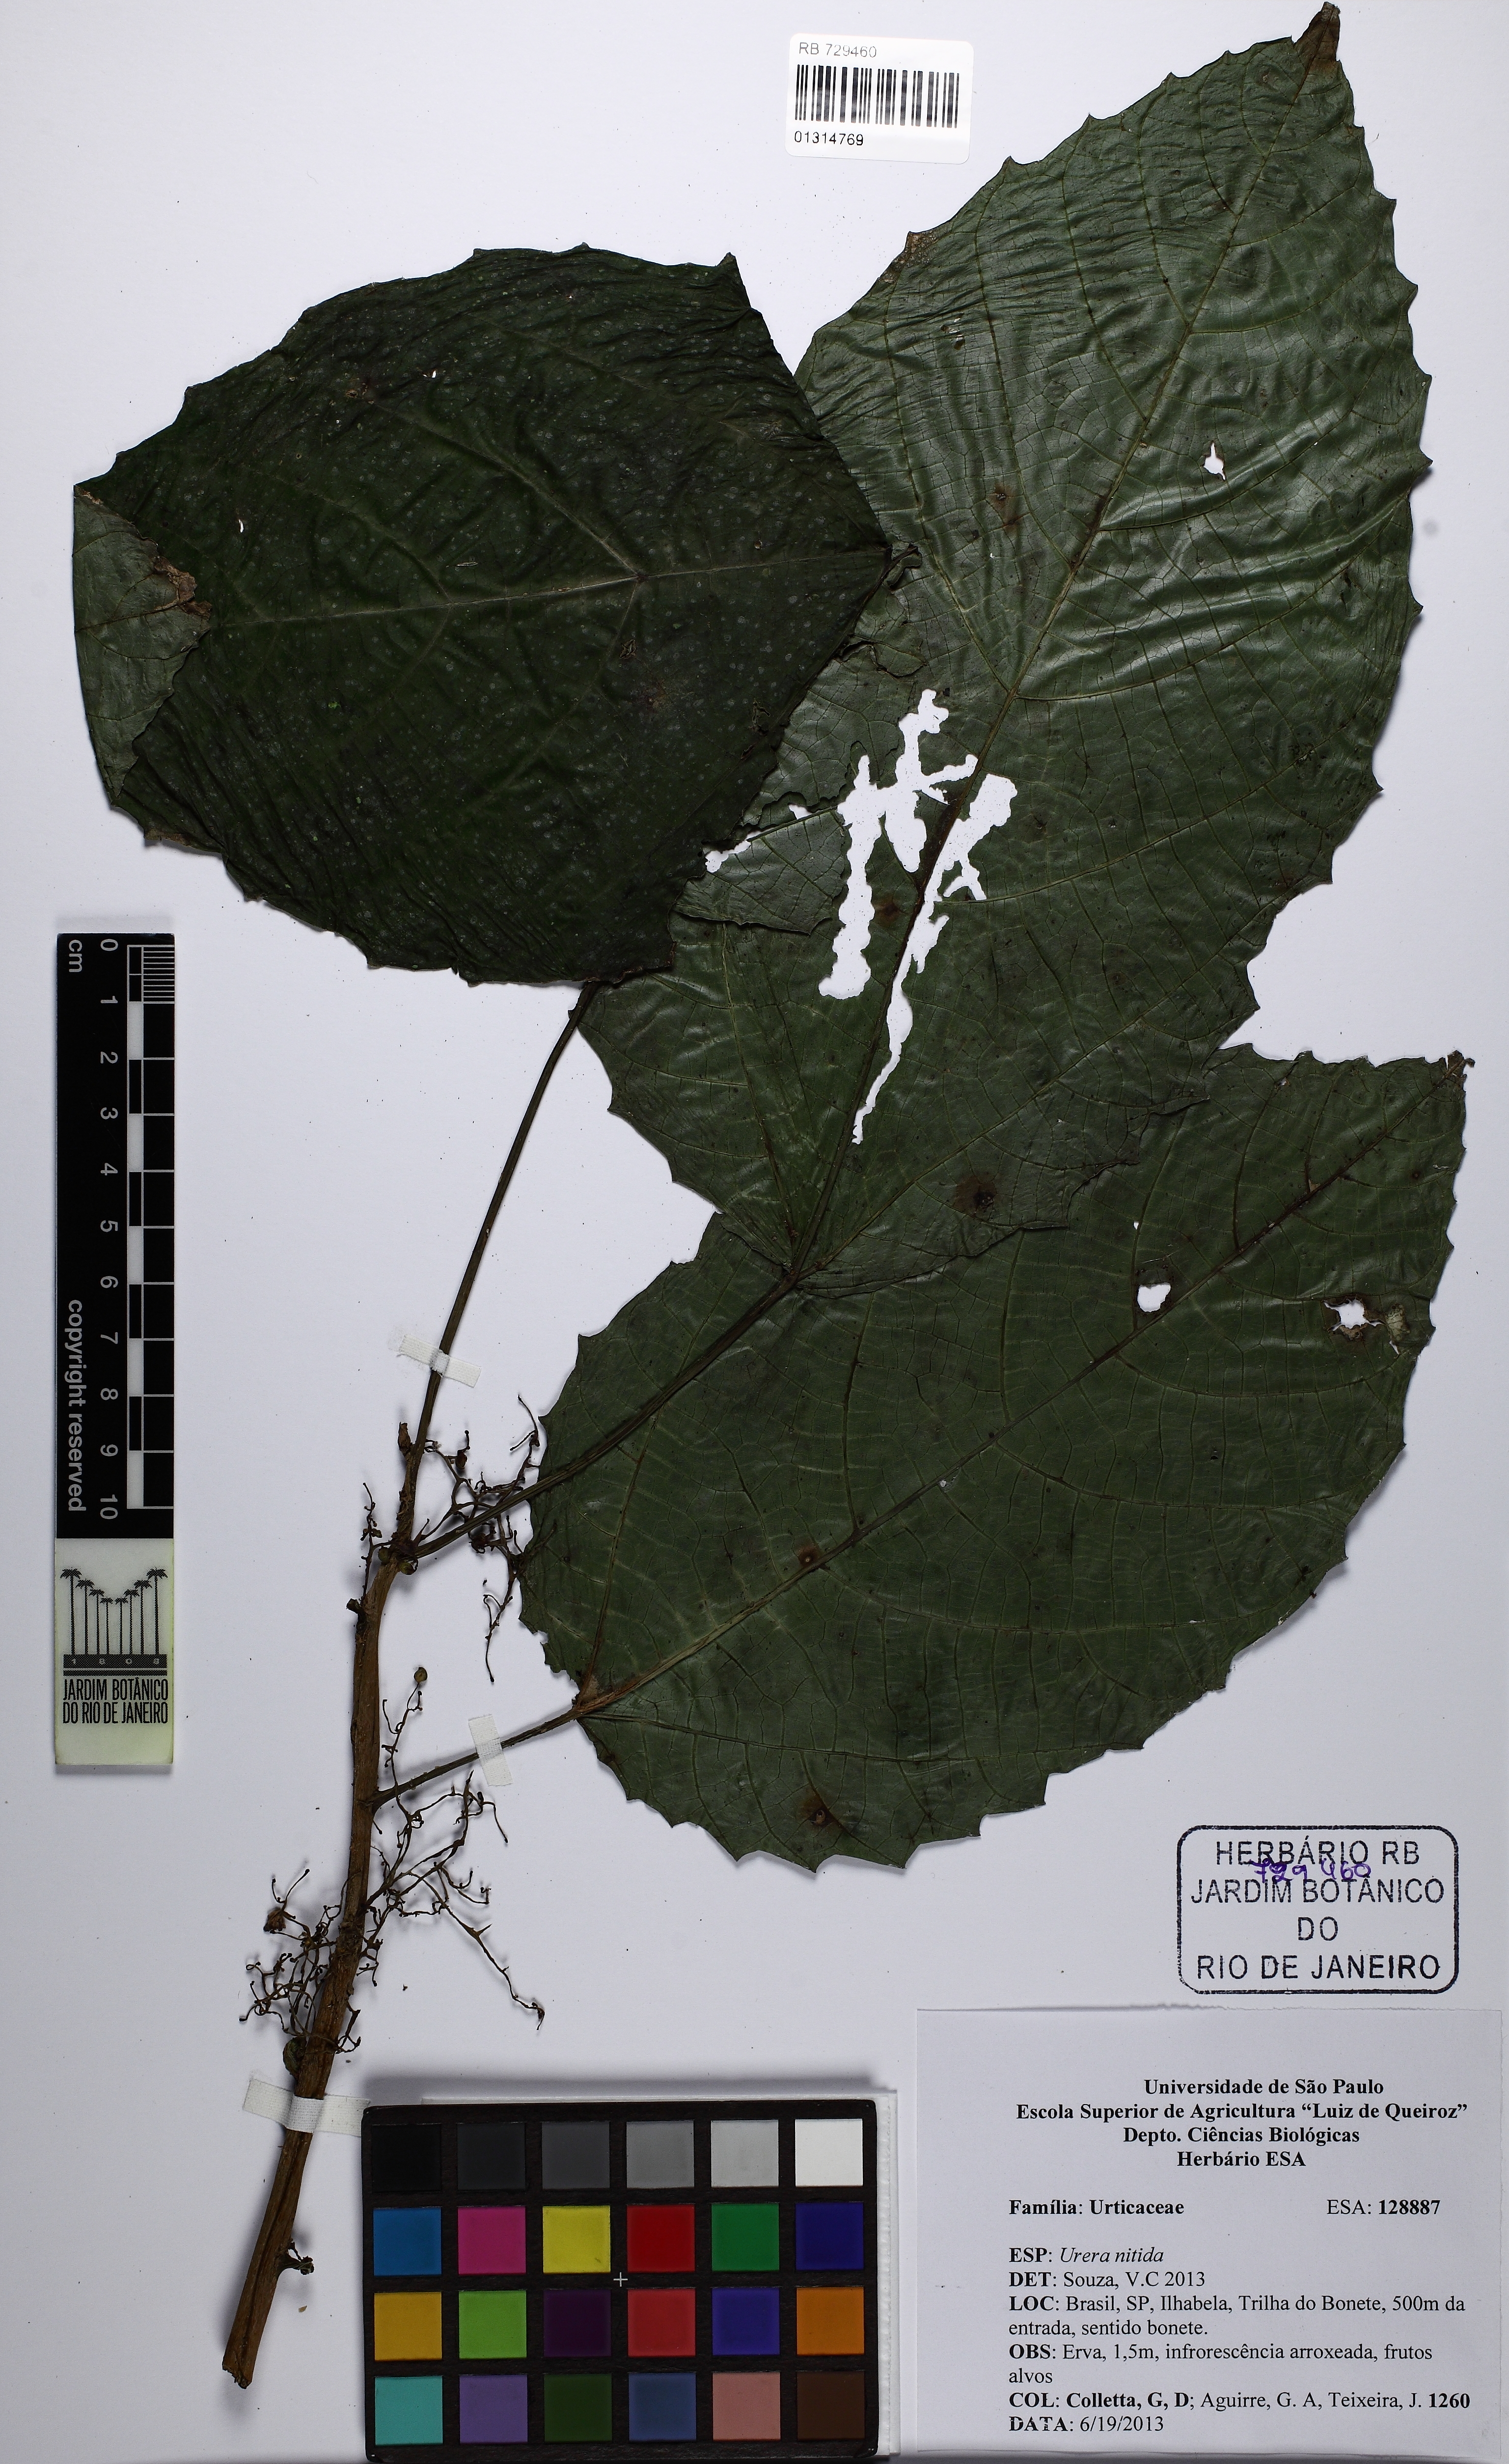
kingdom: Plantae
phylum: Tracheophyta
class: Magnoliopsida
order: Rosales
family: Urticaceae
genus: Urera
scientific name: Urera nitida
